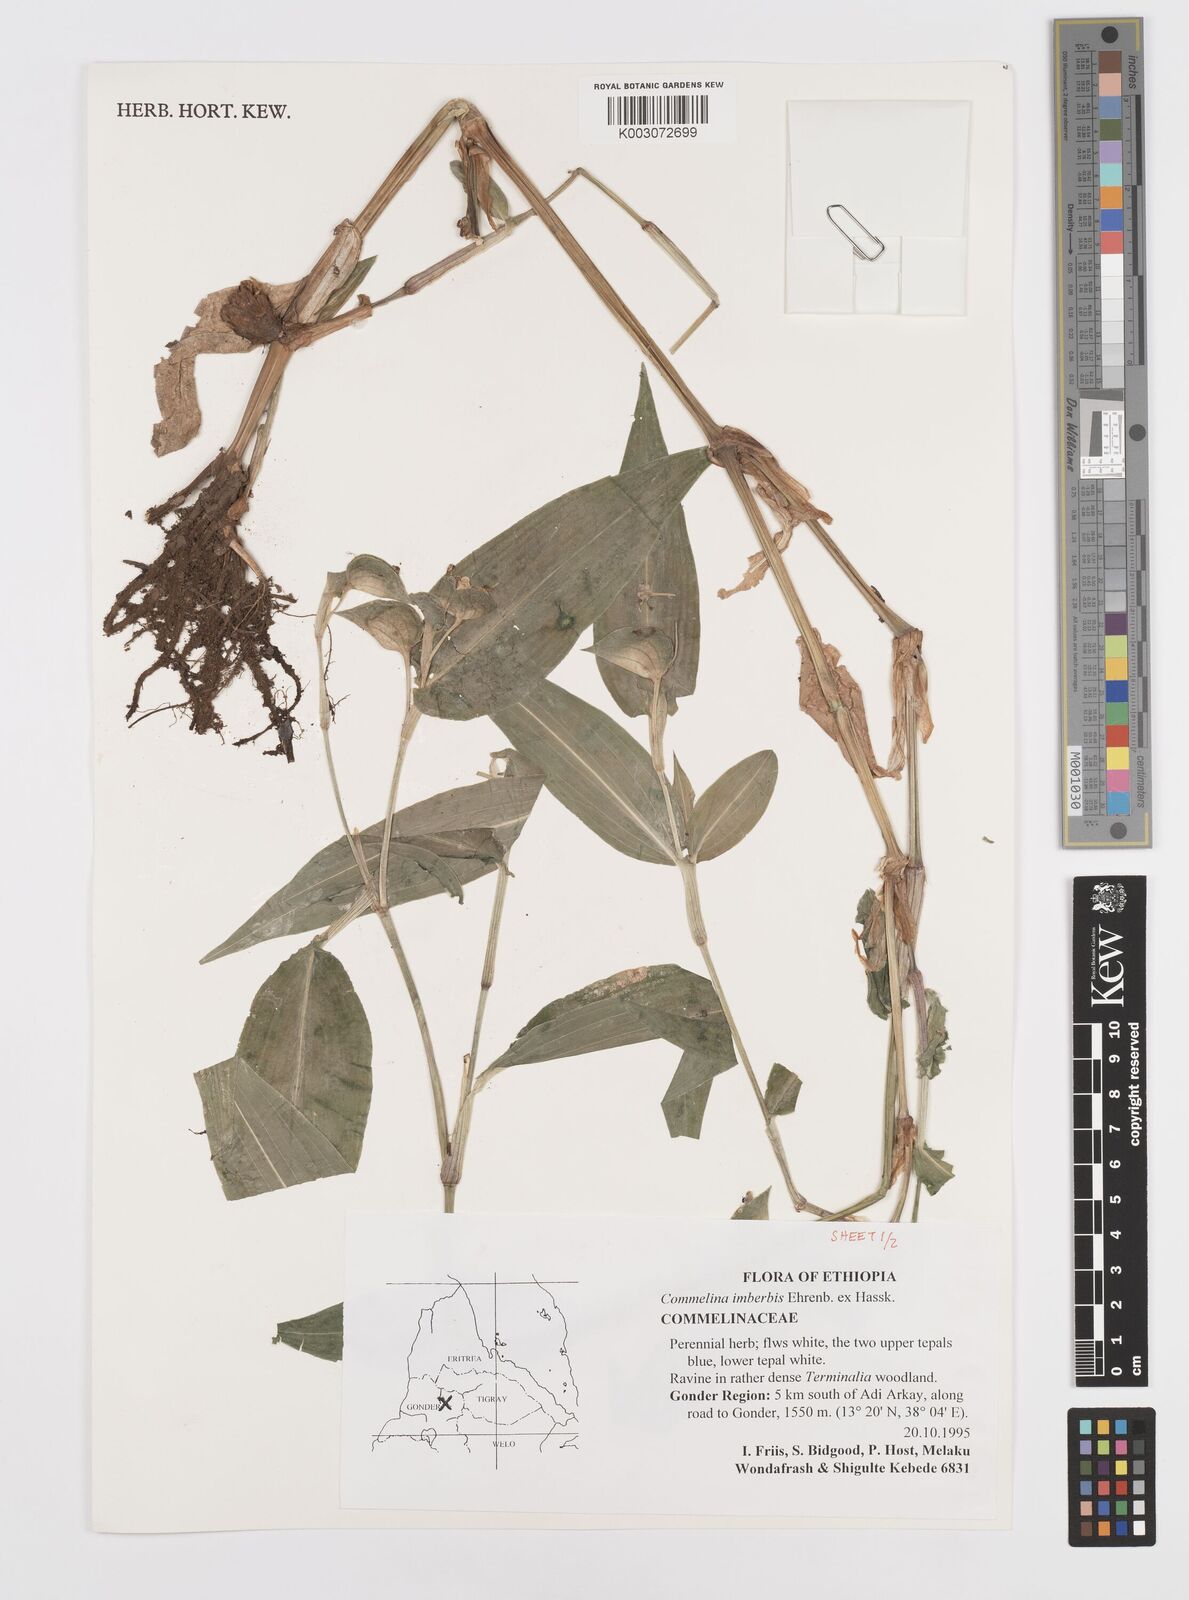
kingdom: Plantae
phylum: Tracheophyta
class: Liliopsida
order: Commelinales
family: Commelinaceae
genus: Commelina
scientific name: Commelina imberbis
